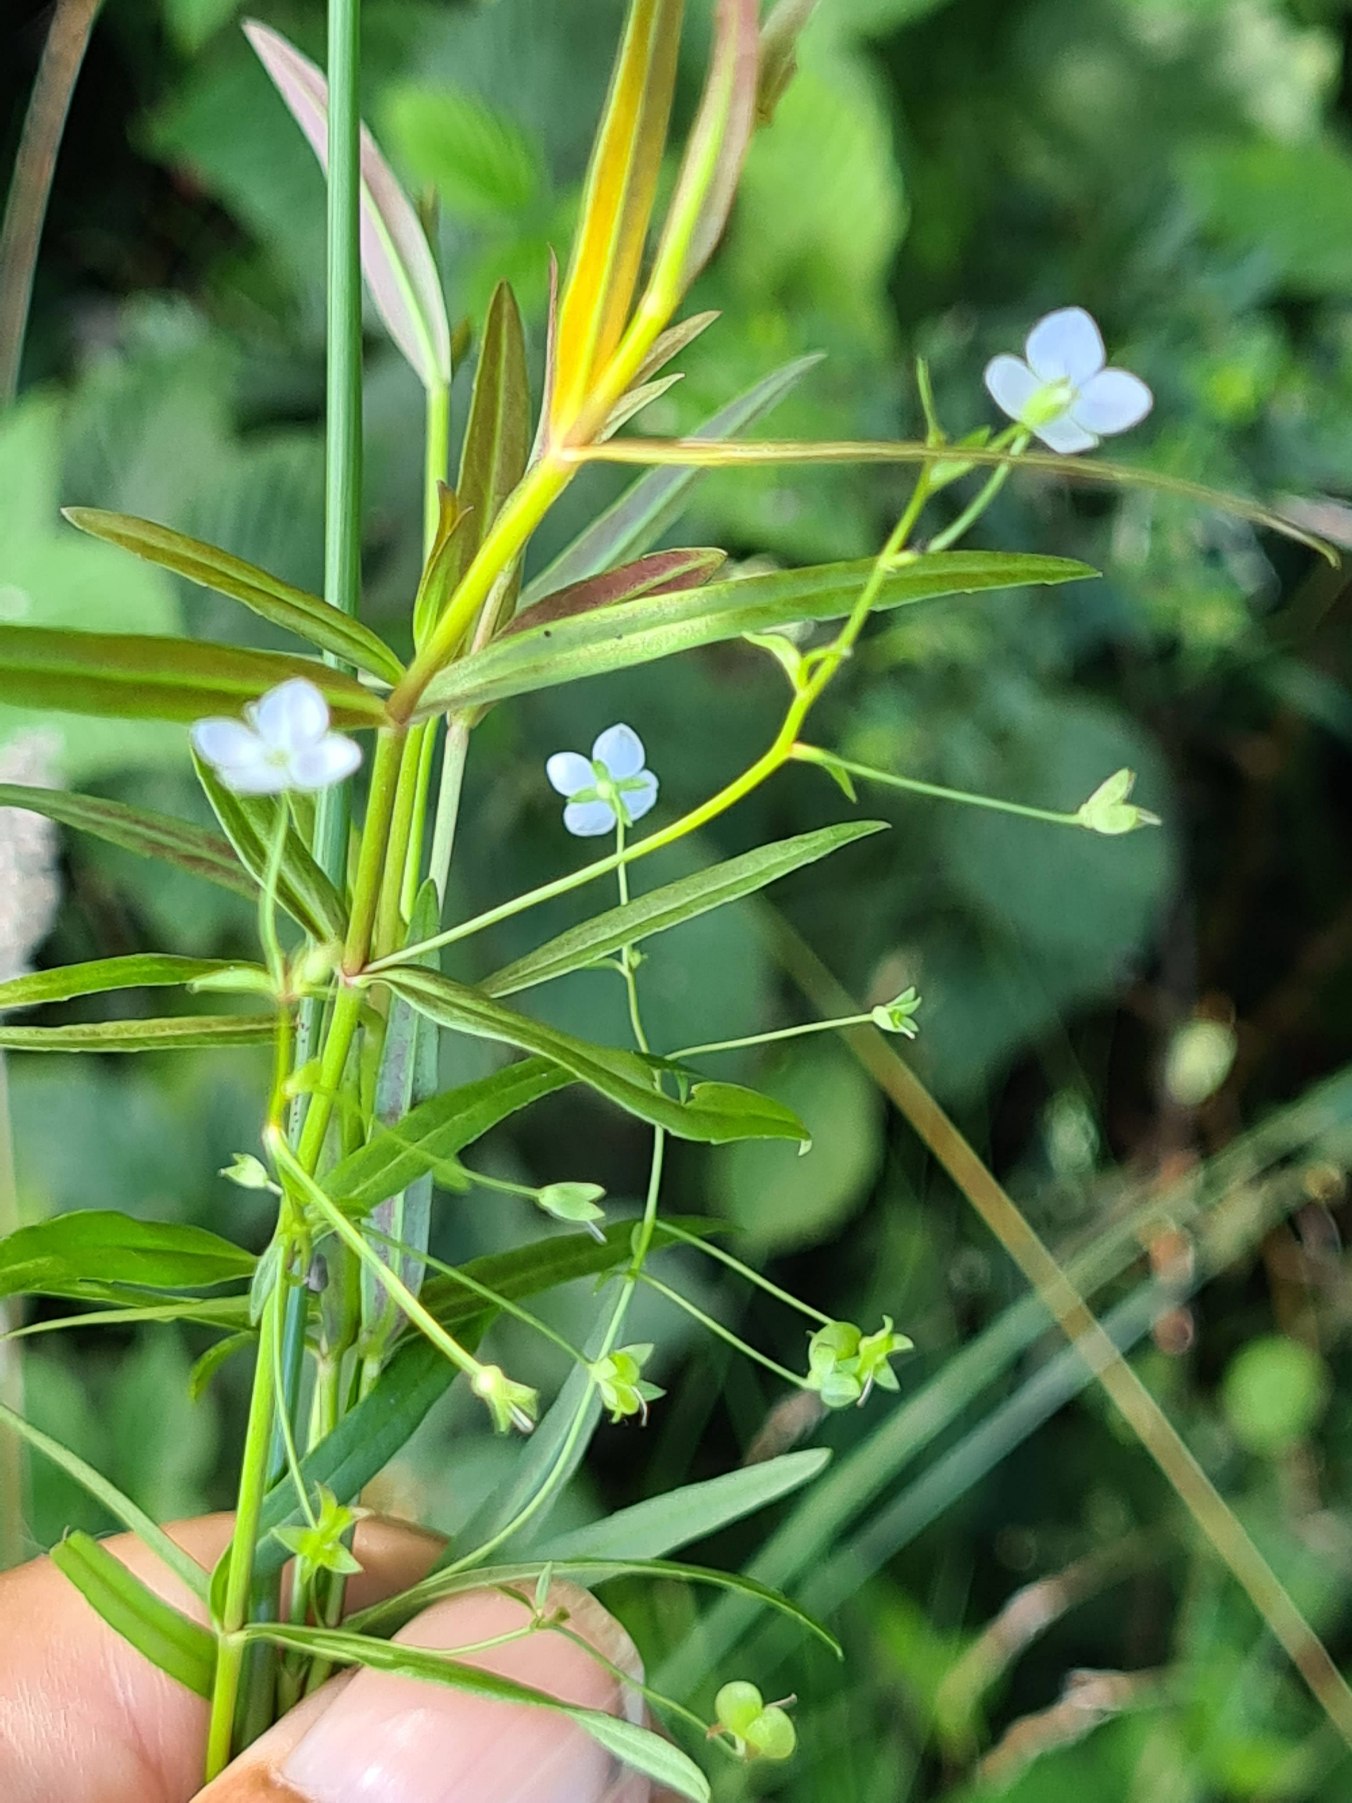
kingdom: Plantae
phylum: Tracheophyta
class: Magnoliopsida
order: Lamiales
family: Plantaginaceae
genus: Veronica
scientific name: Veronica scutellata
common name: Smalbladet ærenpris
